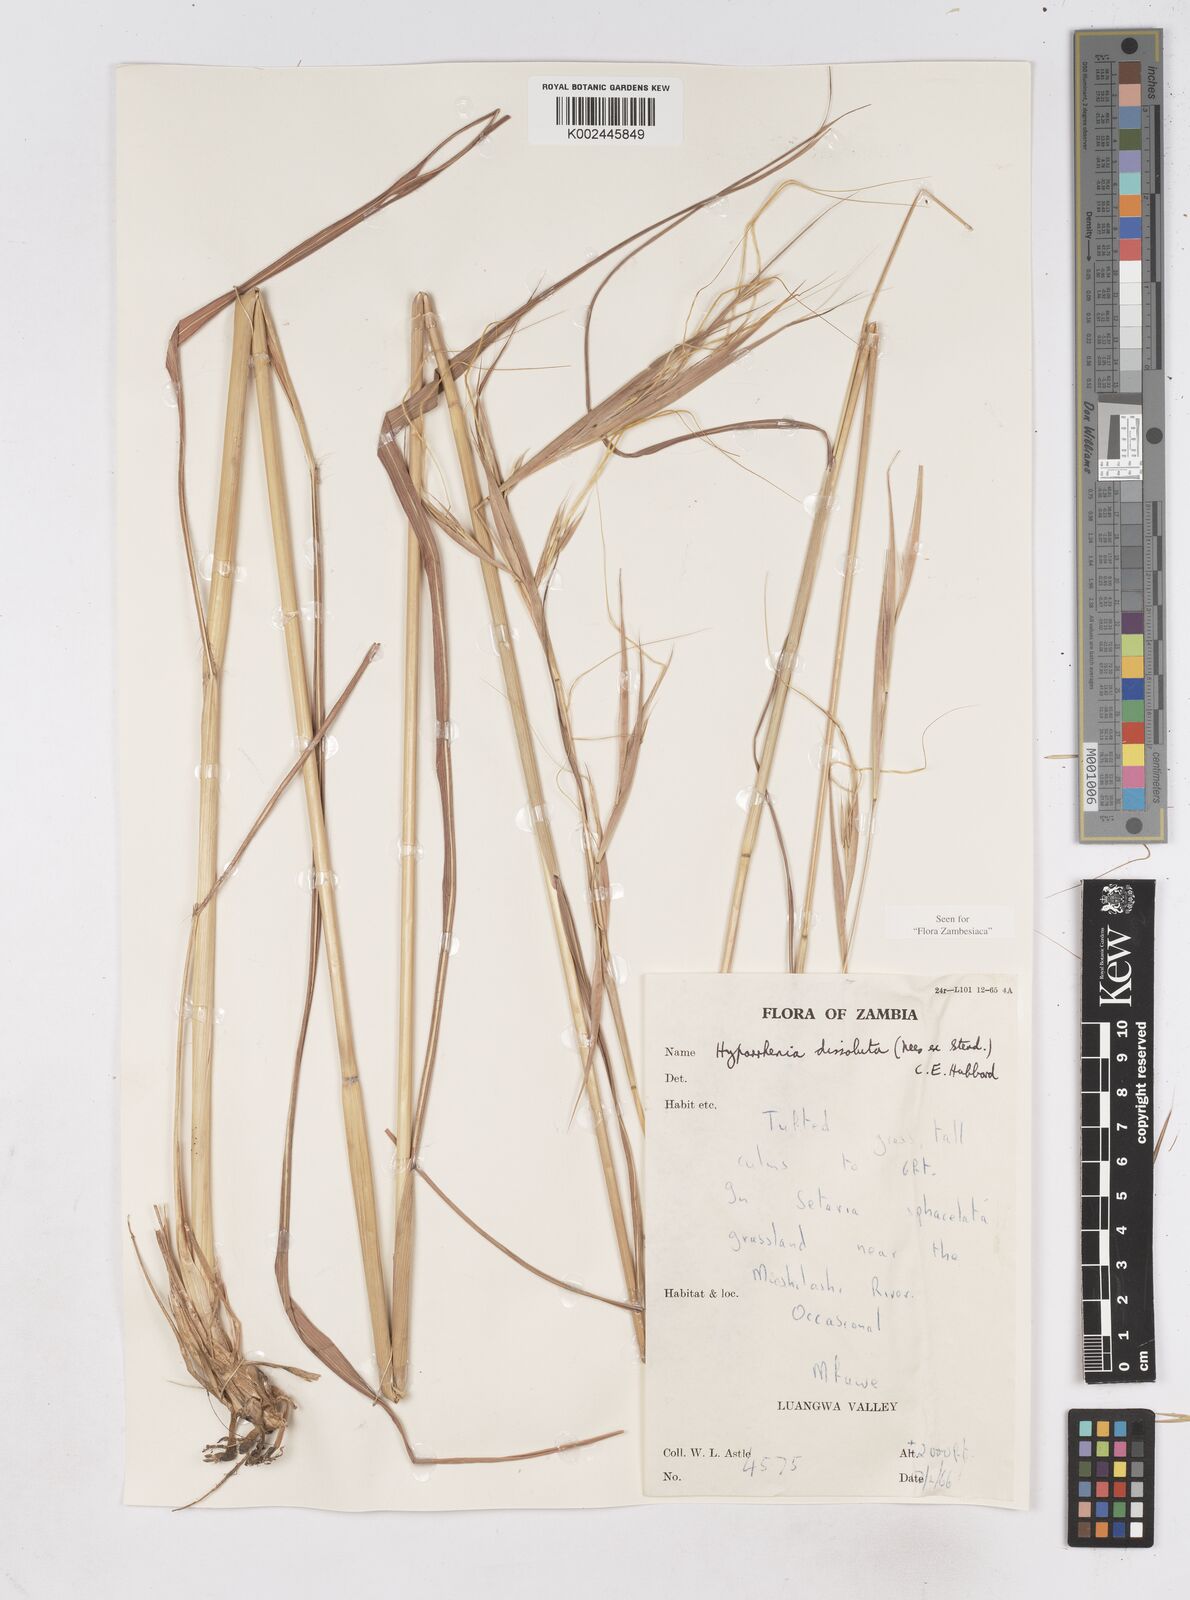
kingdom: Plantae
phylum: Tracheophyta
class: Liliopsida
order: Poales
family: Poaceae
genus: Hyperthelia
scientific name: Hyperthelia dissoluta
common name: Yellow thatching grass
